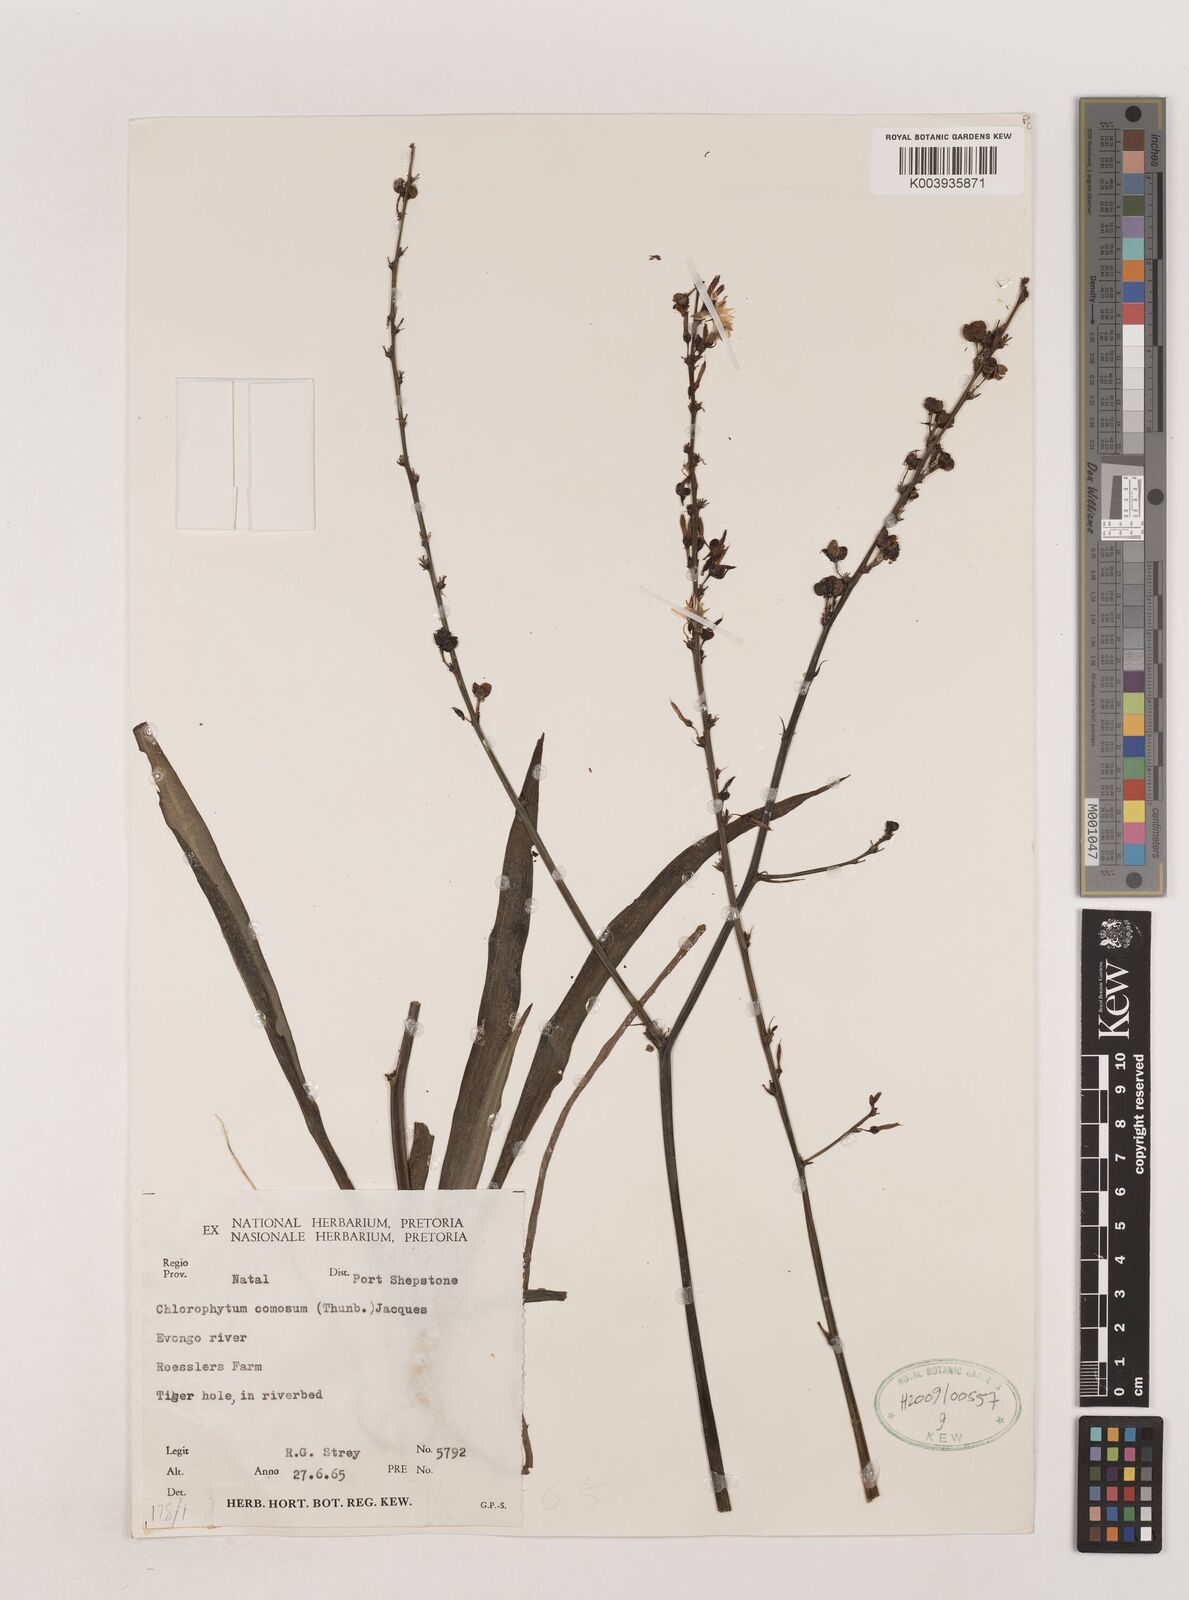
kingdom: Plantae
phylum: Tracheophyta
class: Liliopsida
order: Asparagales
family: Asparagaceae
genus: Chlorophytum
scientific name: Chlorophytum comosum
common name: Spider plant
